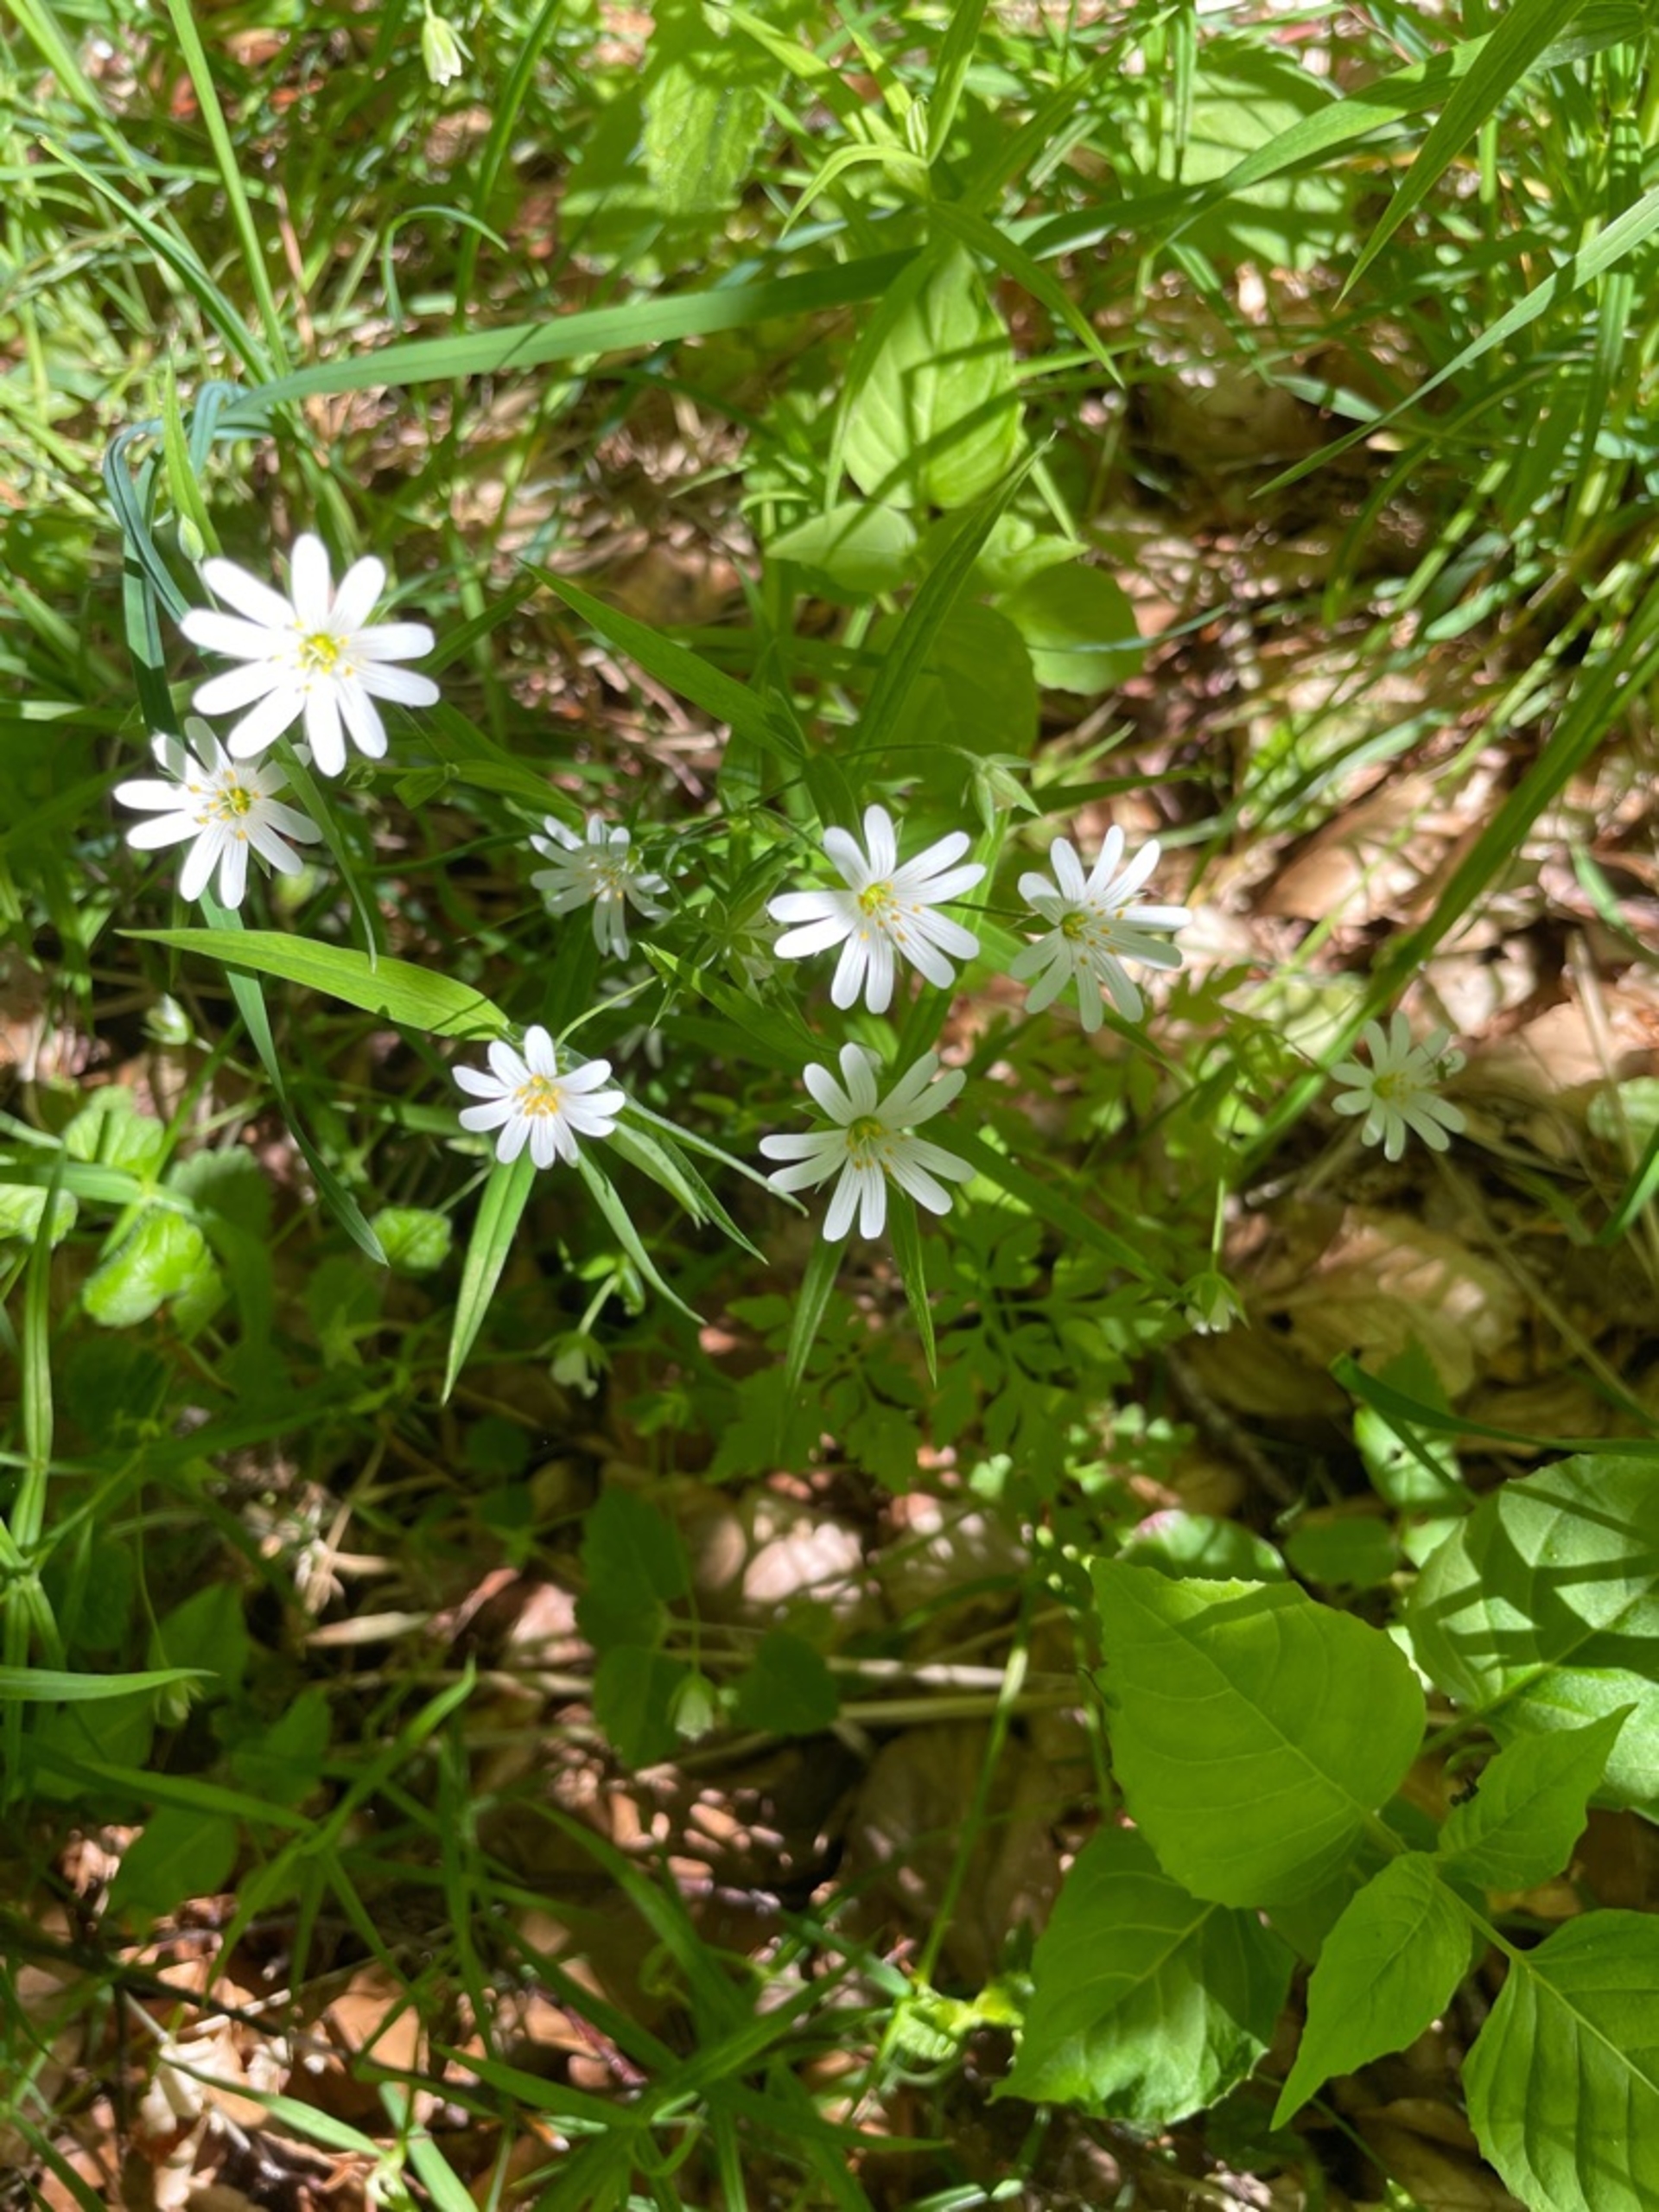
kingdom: Plantae
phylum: Tracheophyta
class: Magnoliopsida
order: Caryophyllales
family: Caryophyllaceae
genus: Rabelera
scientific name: Rabelera holostea
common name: Stor fladstjerne
